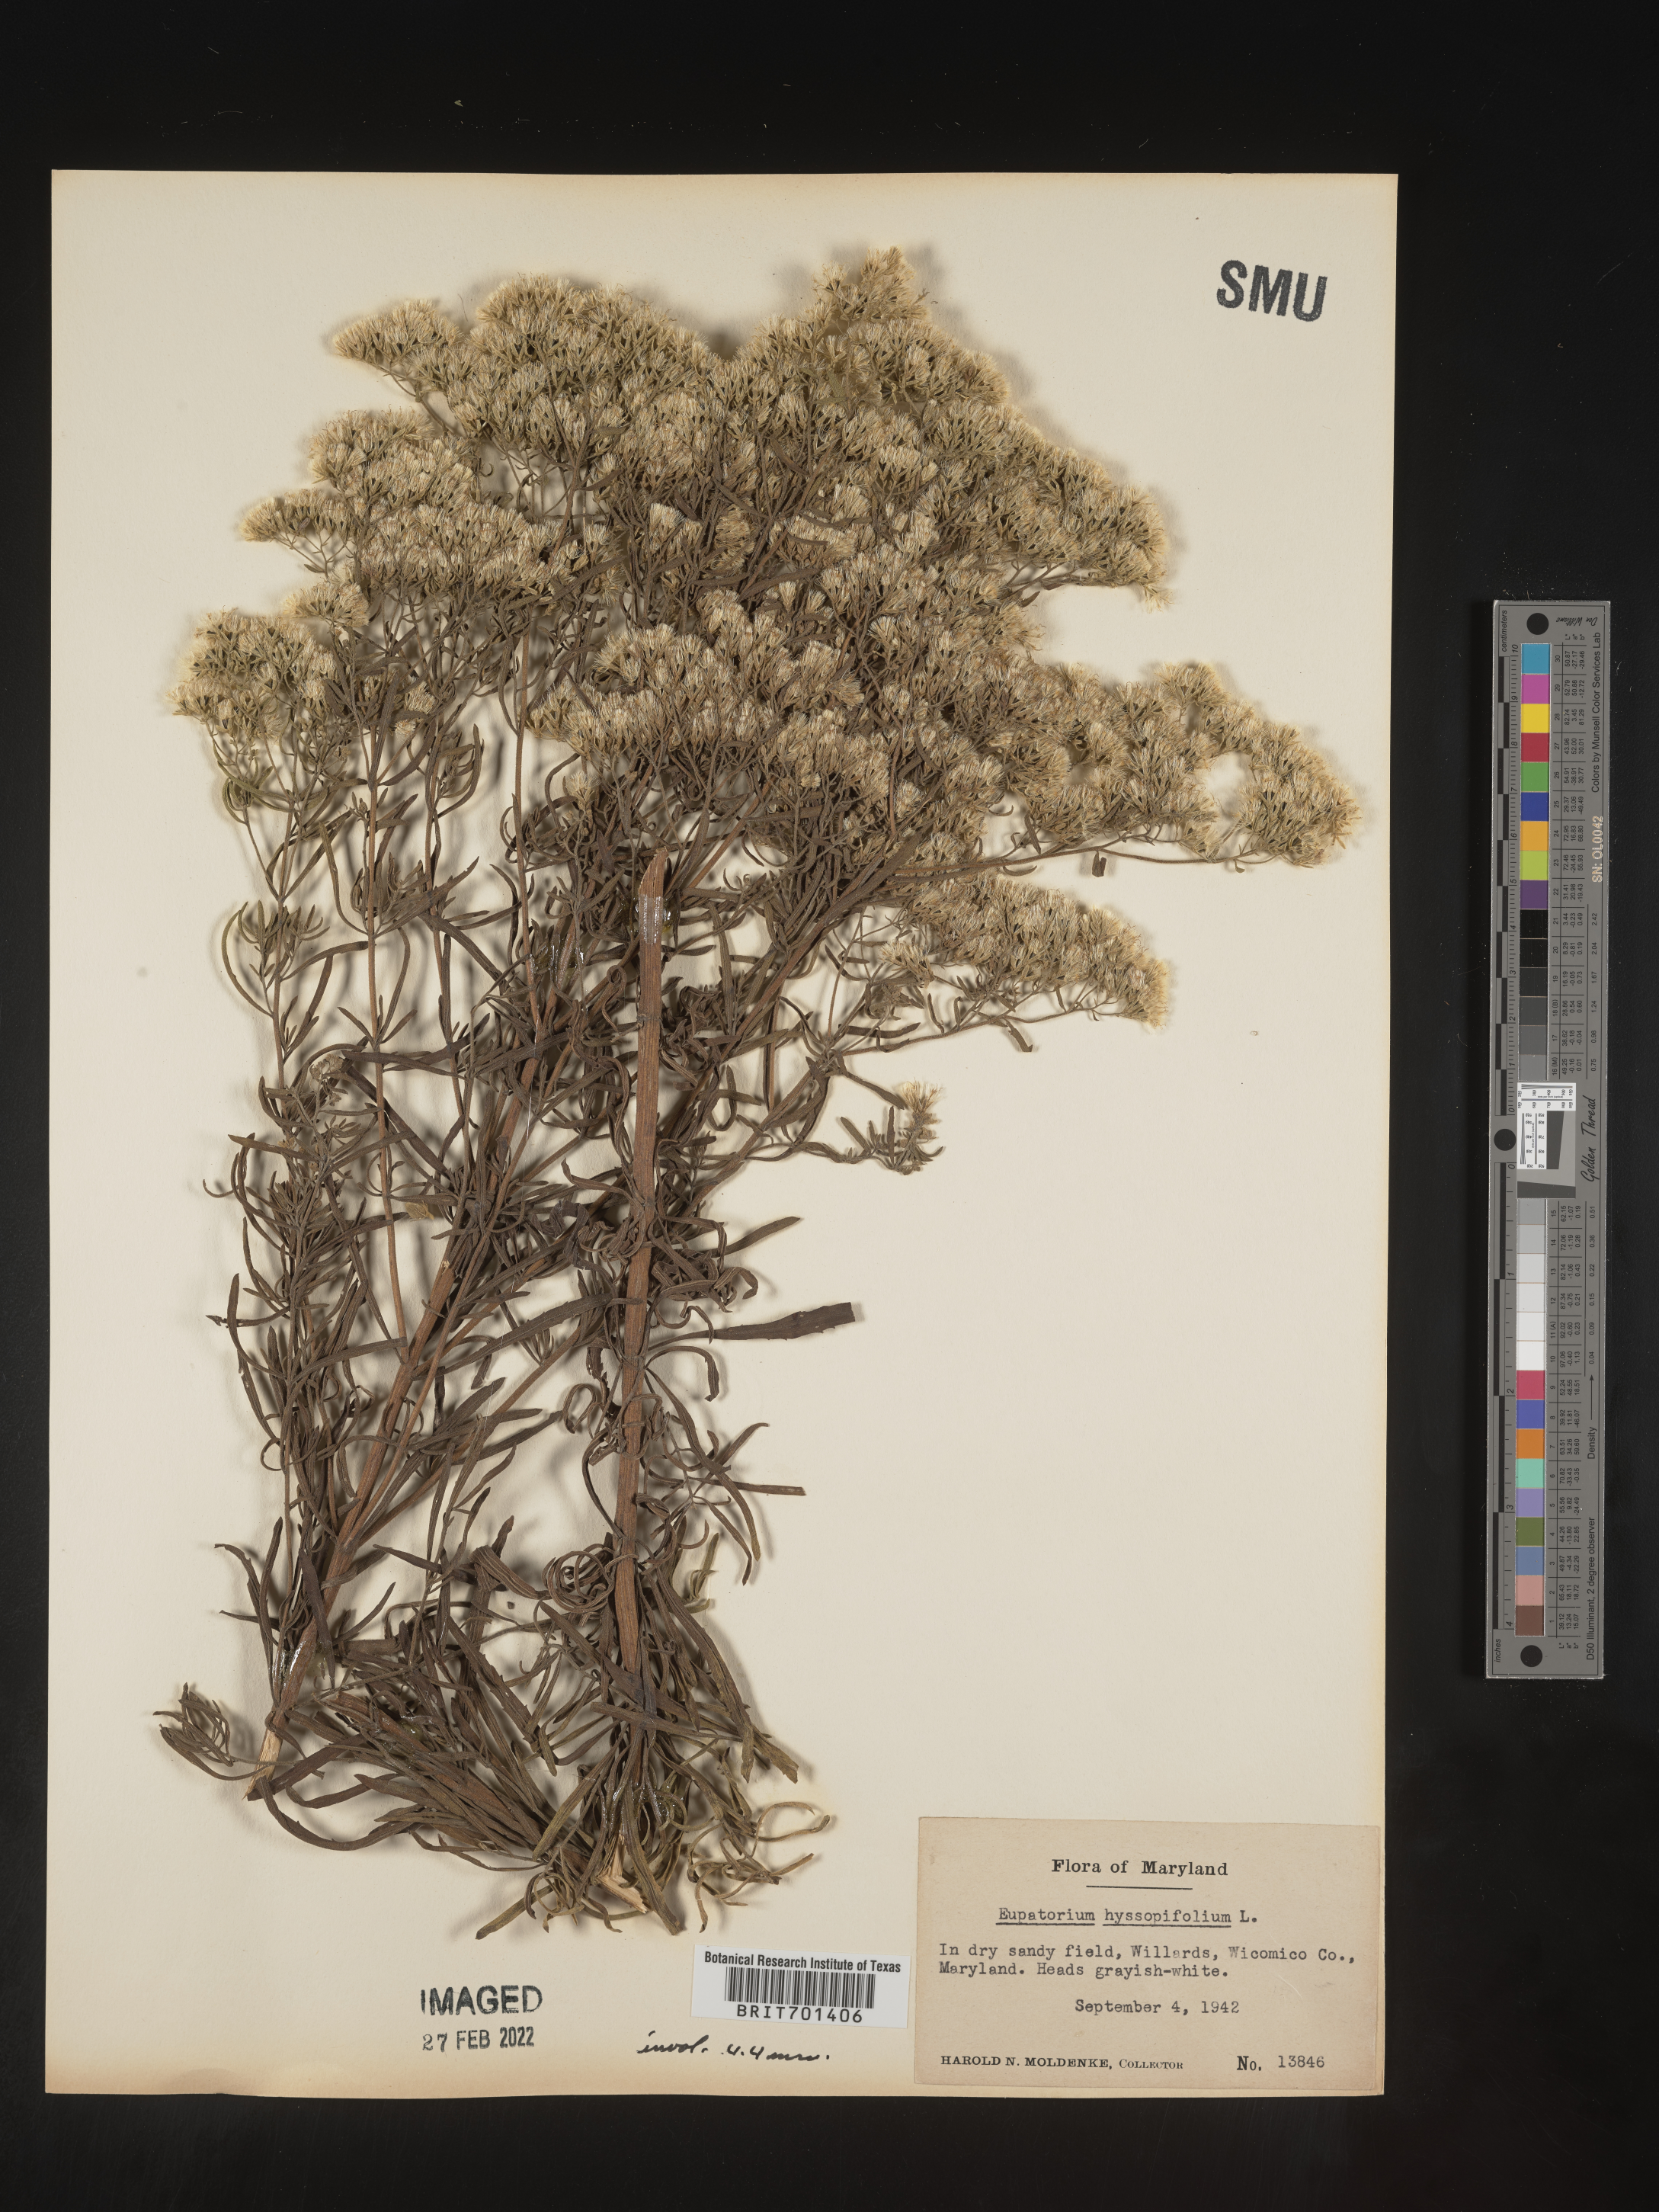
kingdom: Plantae
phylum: Tracheophyta
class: Magnoliopsida
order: Asterales
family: Asteraceae
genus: Eupatorium
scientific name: Eupatorium hyssopifolium
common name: Hyssop-leaf thoroughwort
